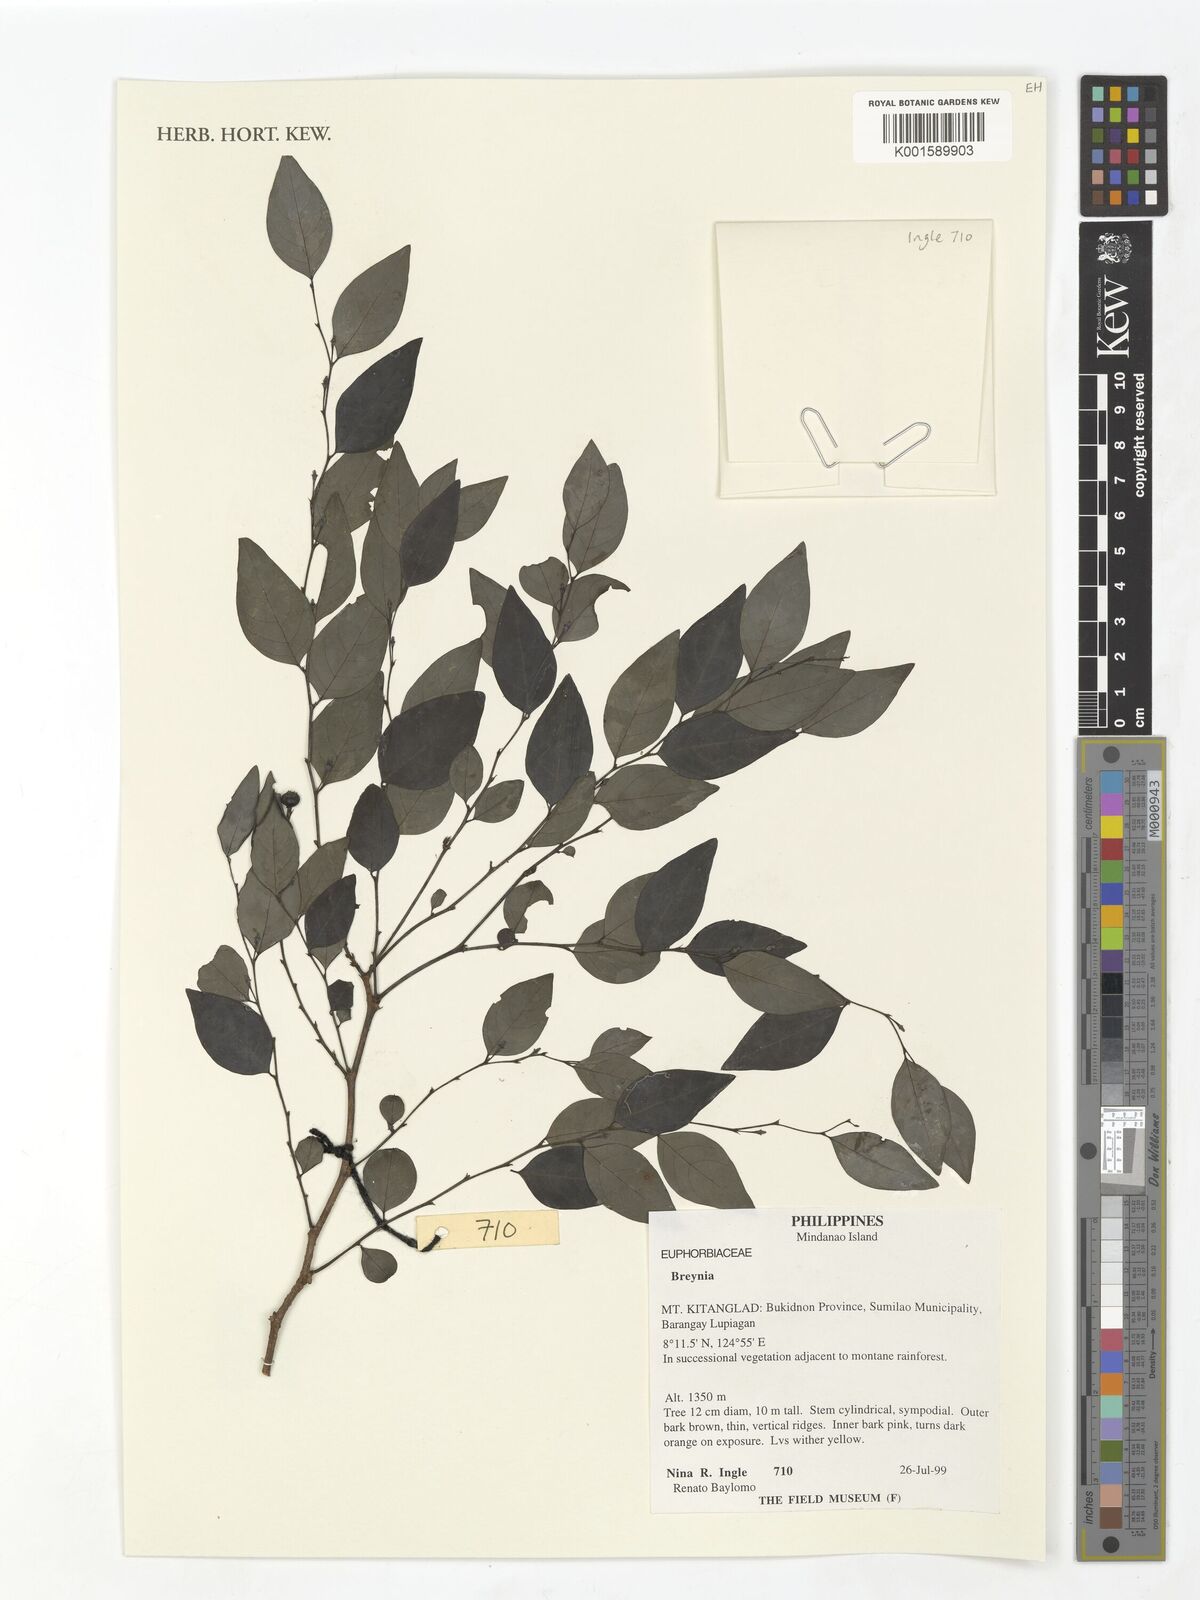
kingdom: Plantae
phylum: Tracheophyta
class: Magnoliopsida
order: Malpighiales
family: Phyllanthaceae
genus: Breynia
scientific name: Breynia
